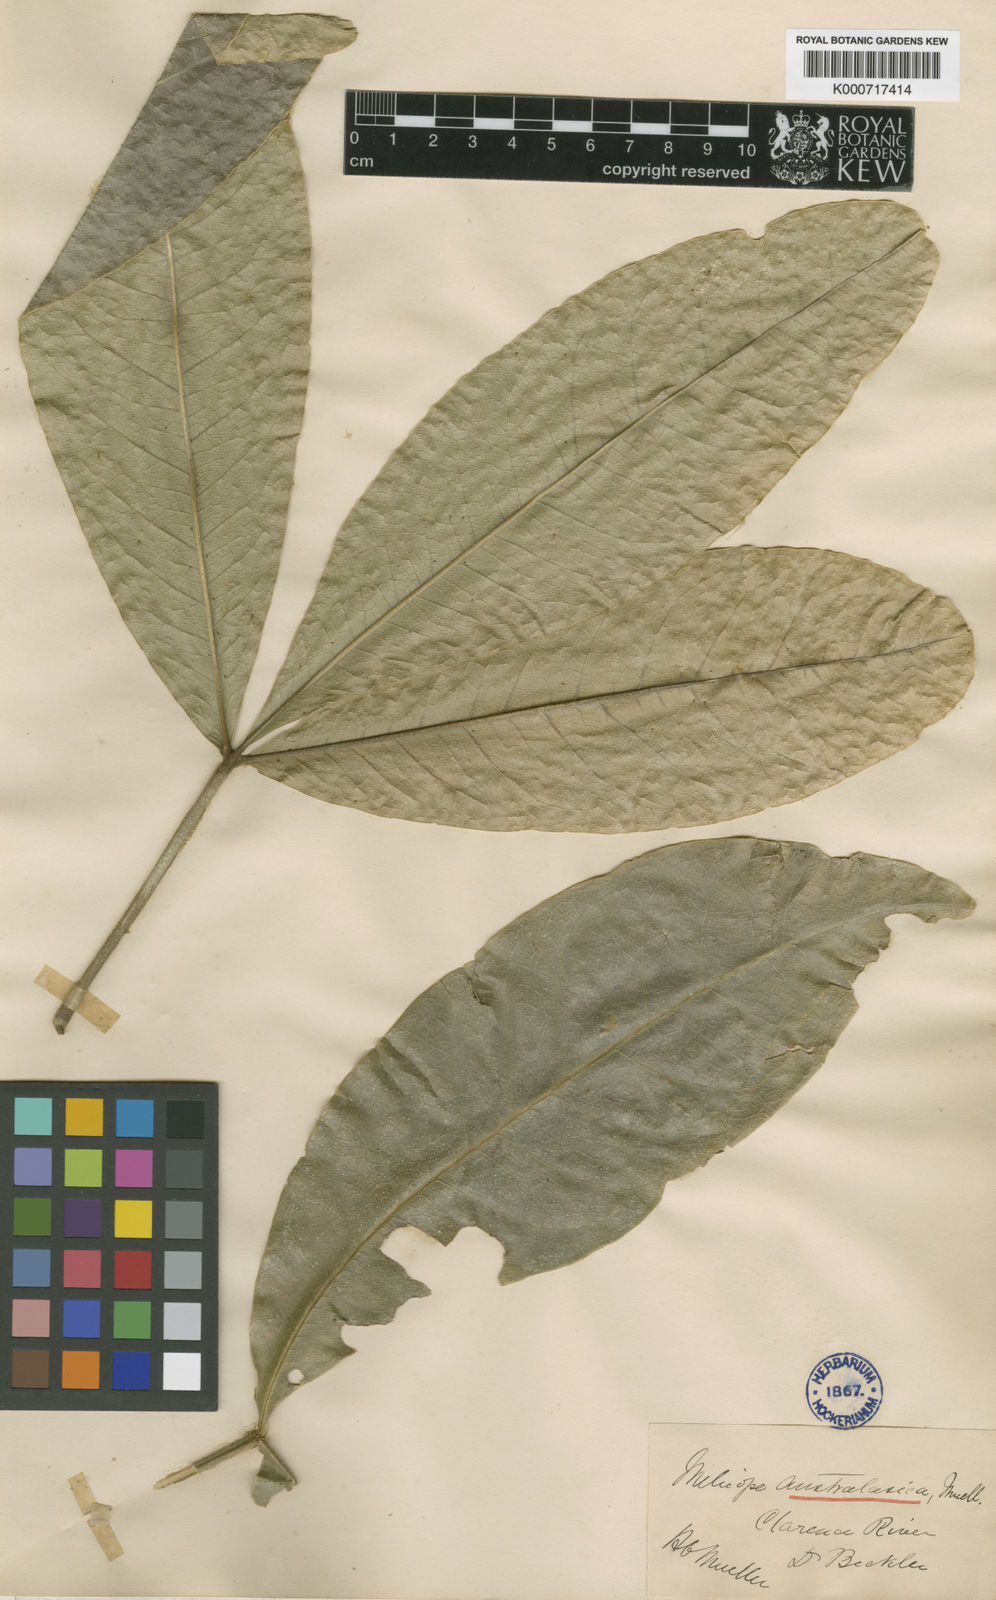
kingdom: Plantae
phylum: Tracheophyta
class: Magnoliopsida
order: Sapindales
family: Rutaceae
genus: Acronychia
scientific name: Acronychia octandra
